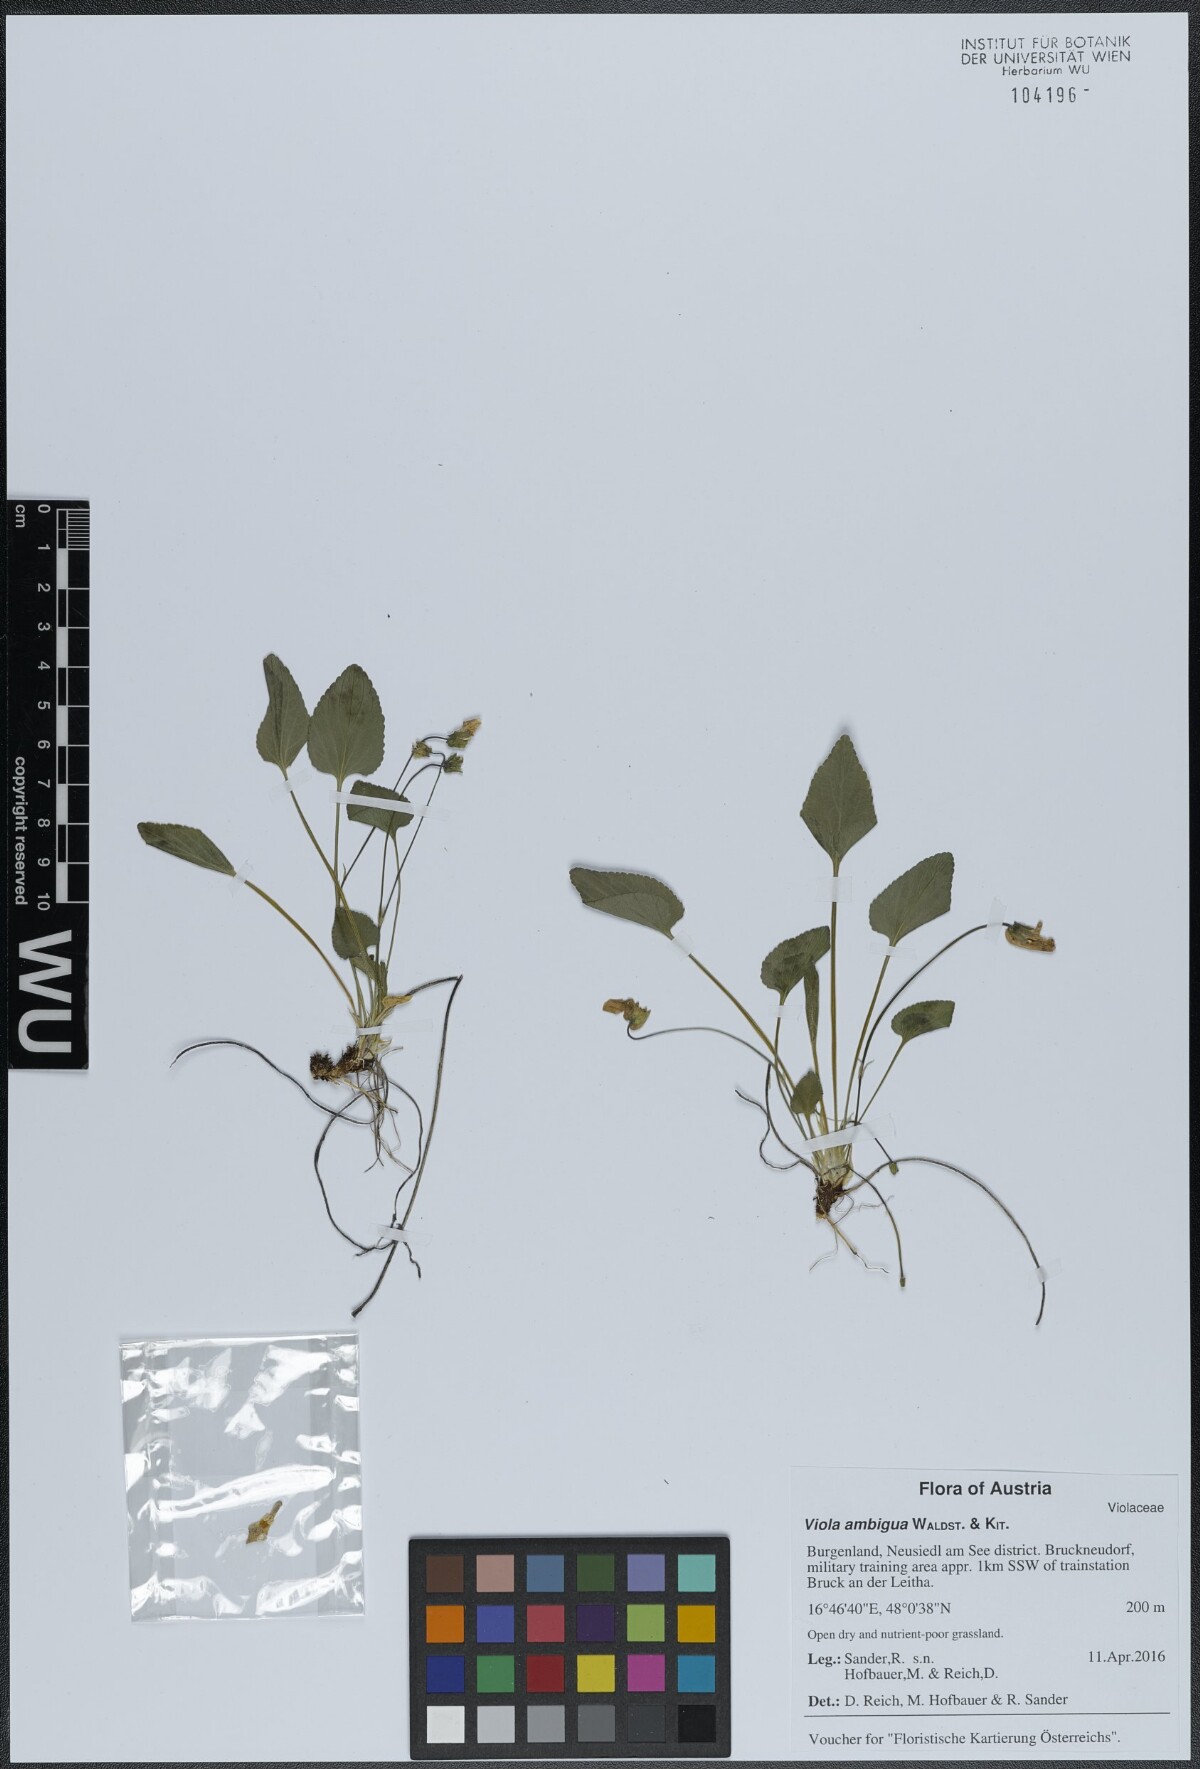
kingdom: Plantae
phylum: Tracheophyta
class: Magnoliopsida
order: Malpighiales
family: Violaceae
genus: Viola
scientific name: Viola ambigua
